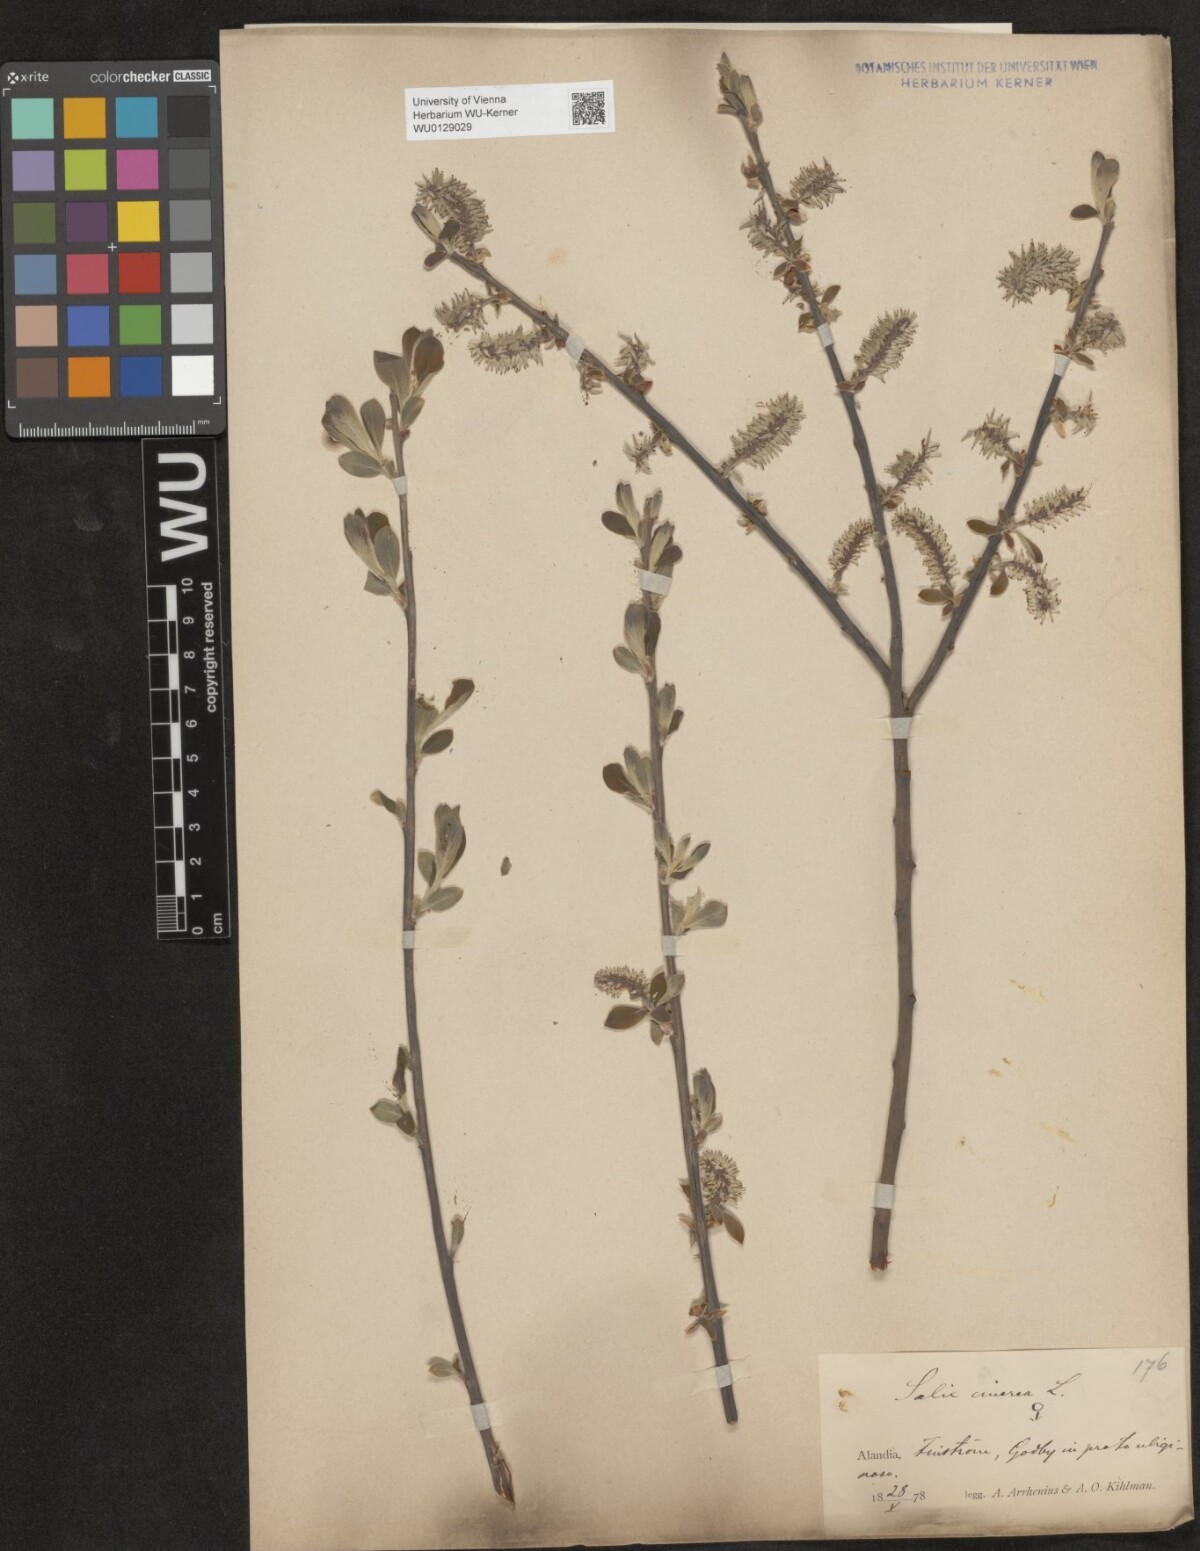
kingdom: Plantae
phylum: Tracheophyta
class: Magnoliopsida
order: Malpighiales
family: Salicaceae
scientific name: Salicaceae
